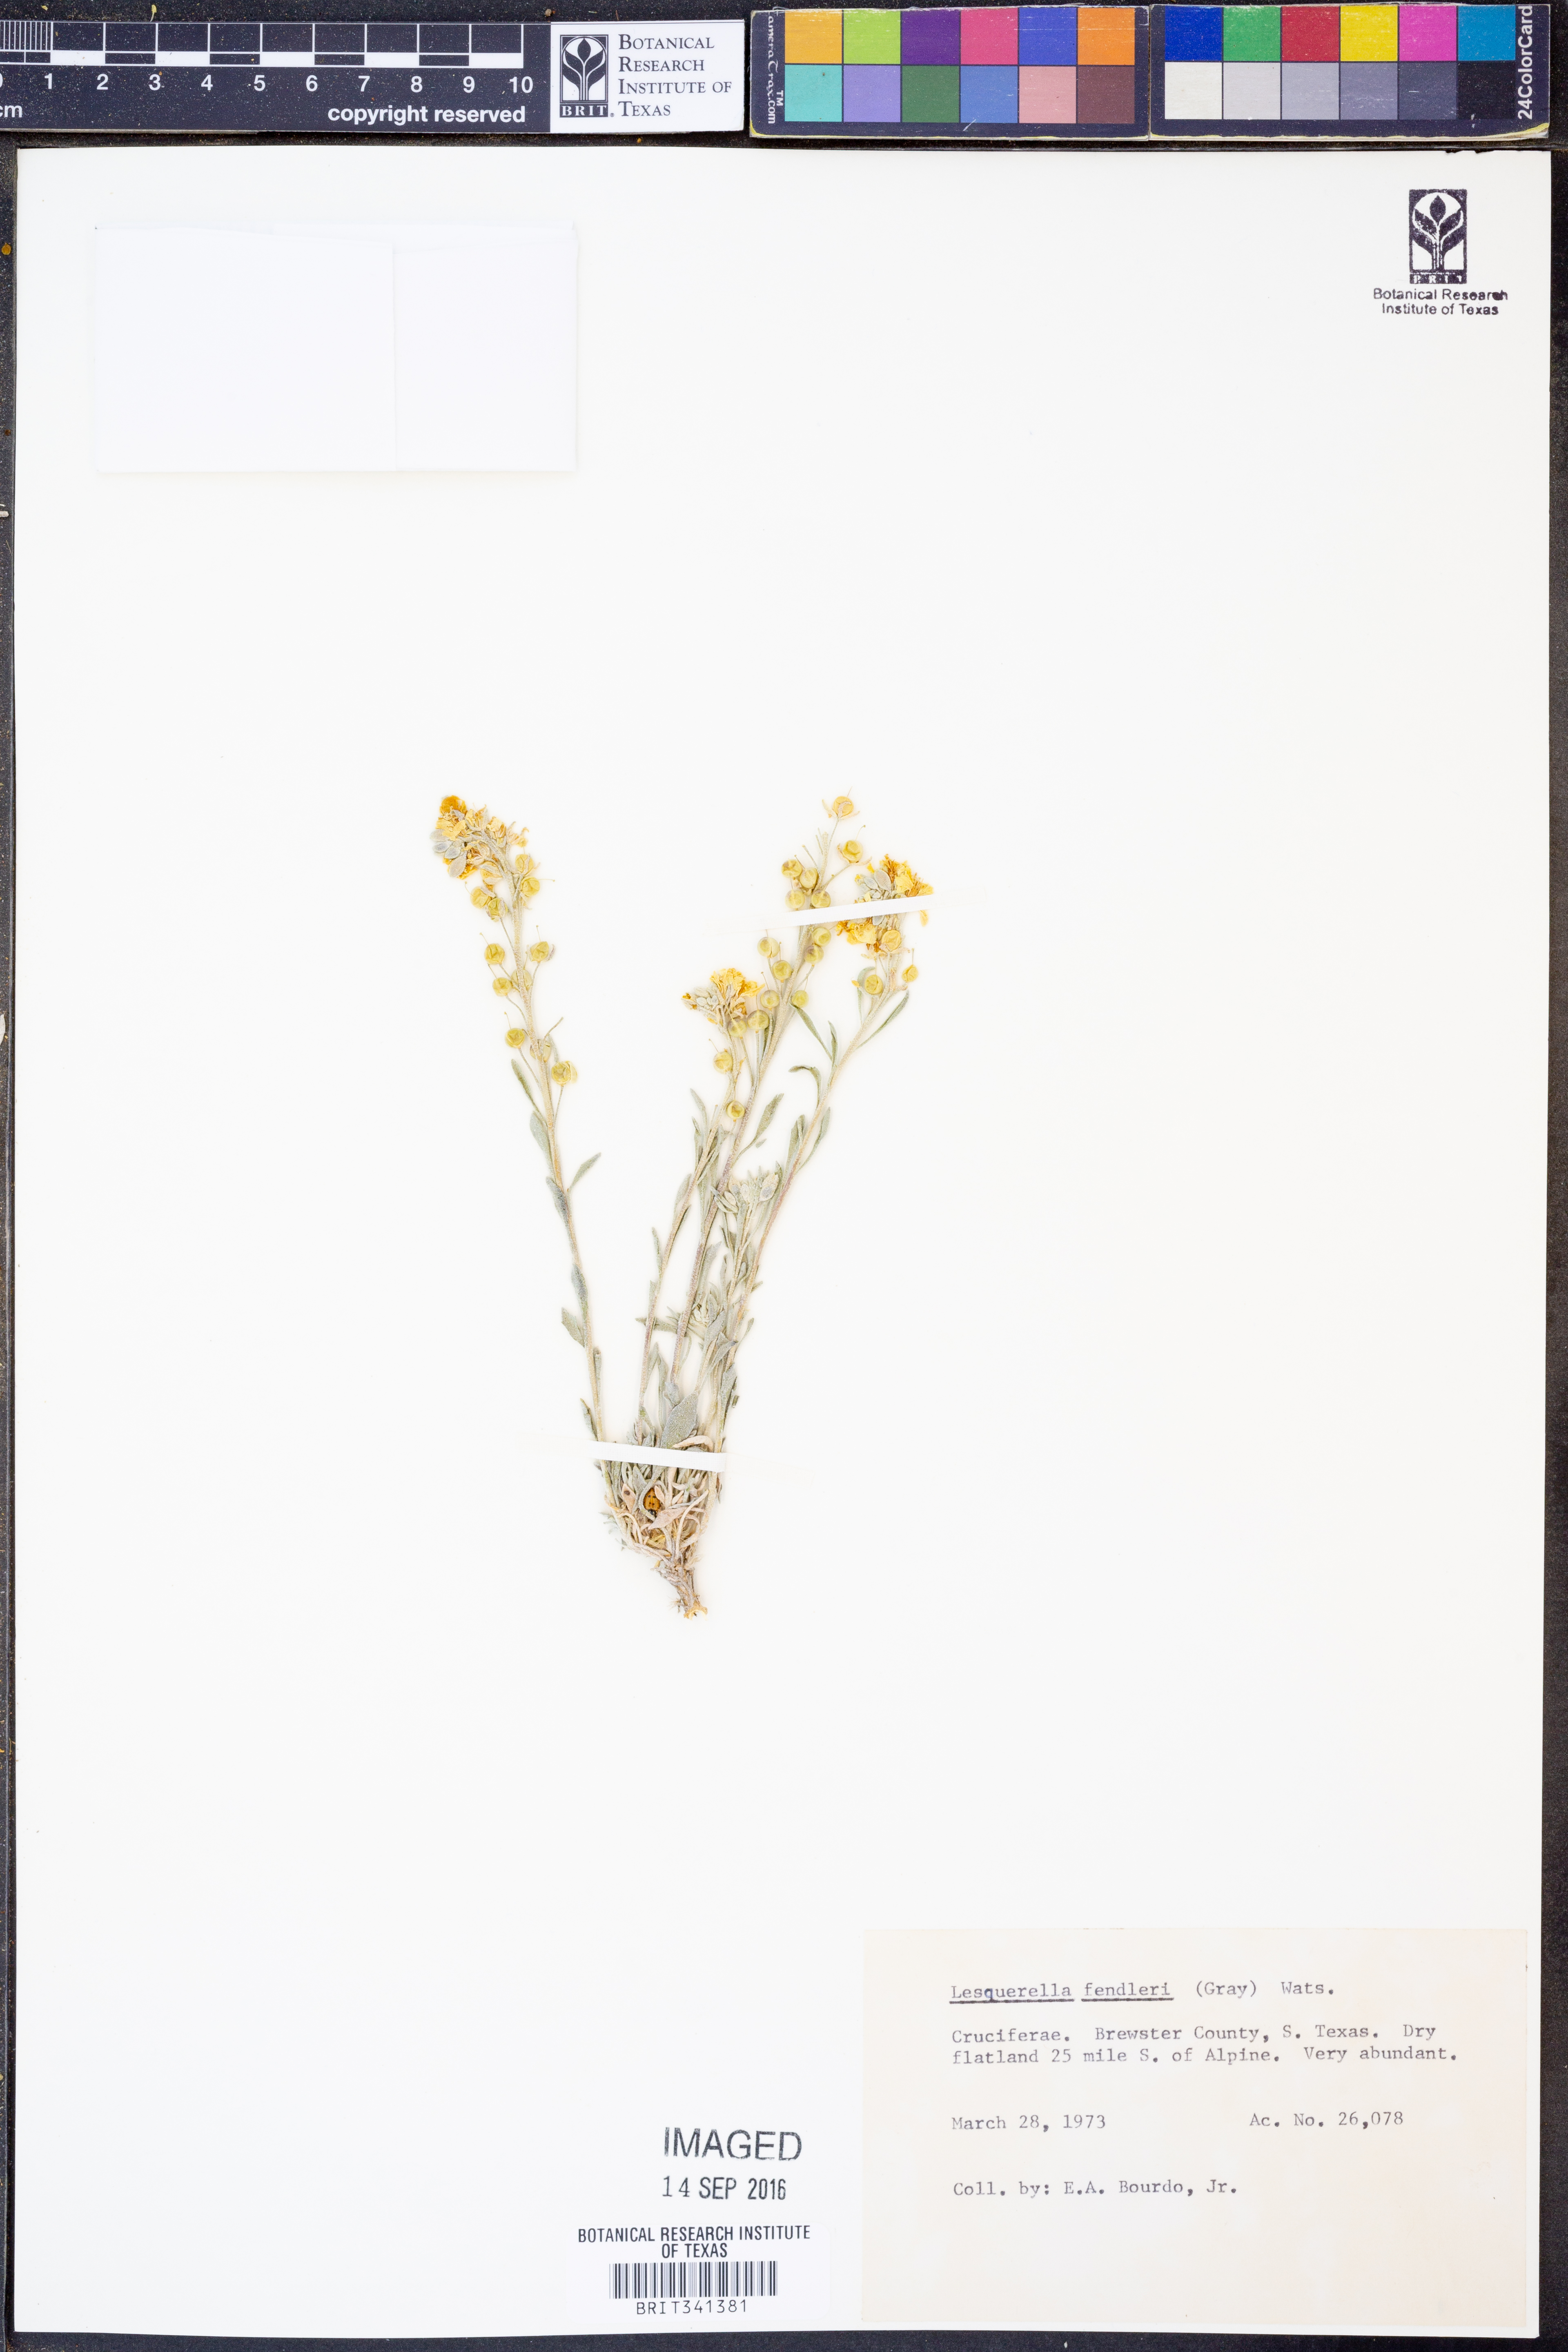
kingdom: Plantae
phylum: Tracheophyta
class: Magnoliopsida
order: Brassicales
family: Brassicaceae
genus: Physaria
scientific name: Physaria fendleri
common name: Fendler's bladderpod
